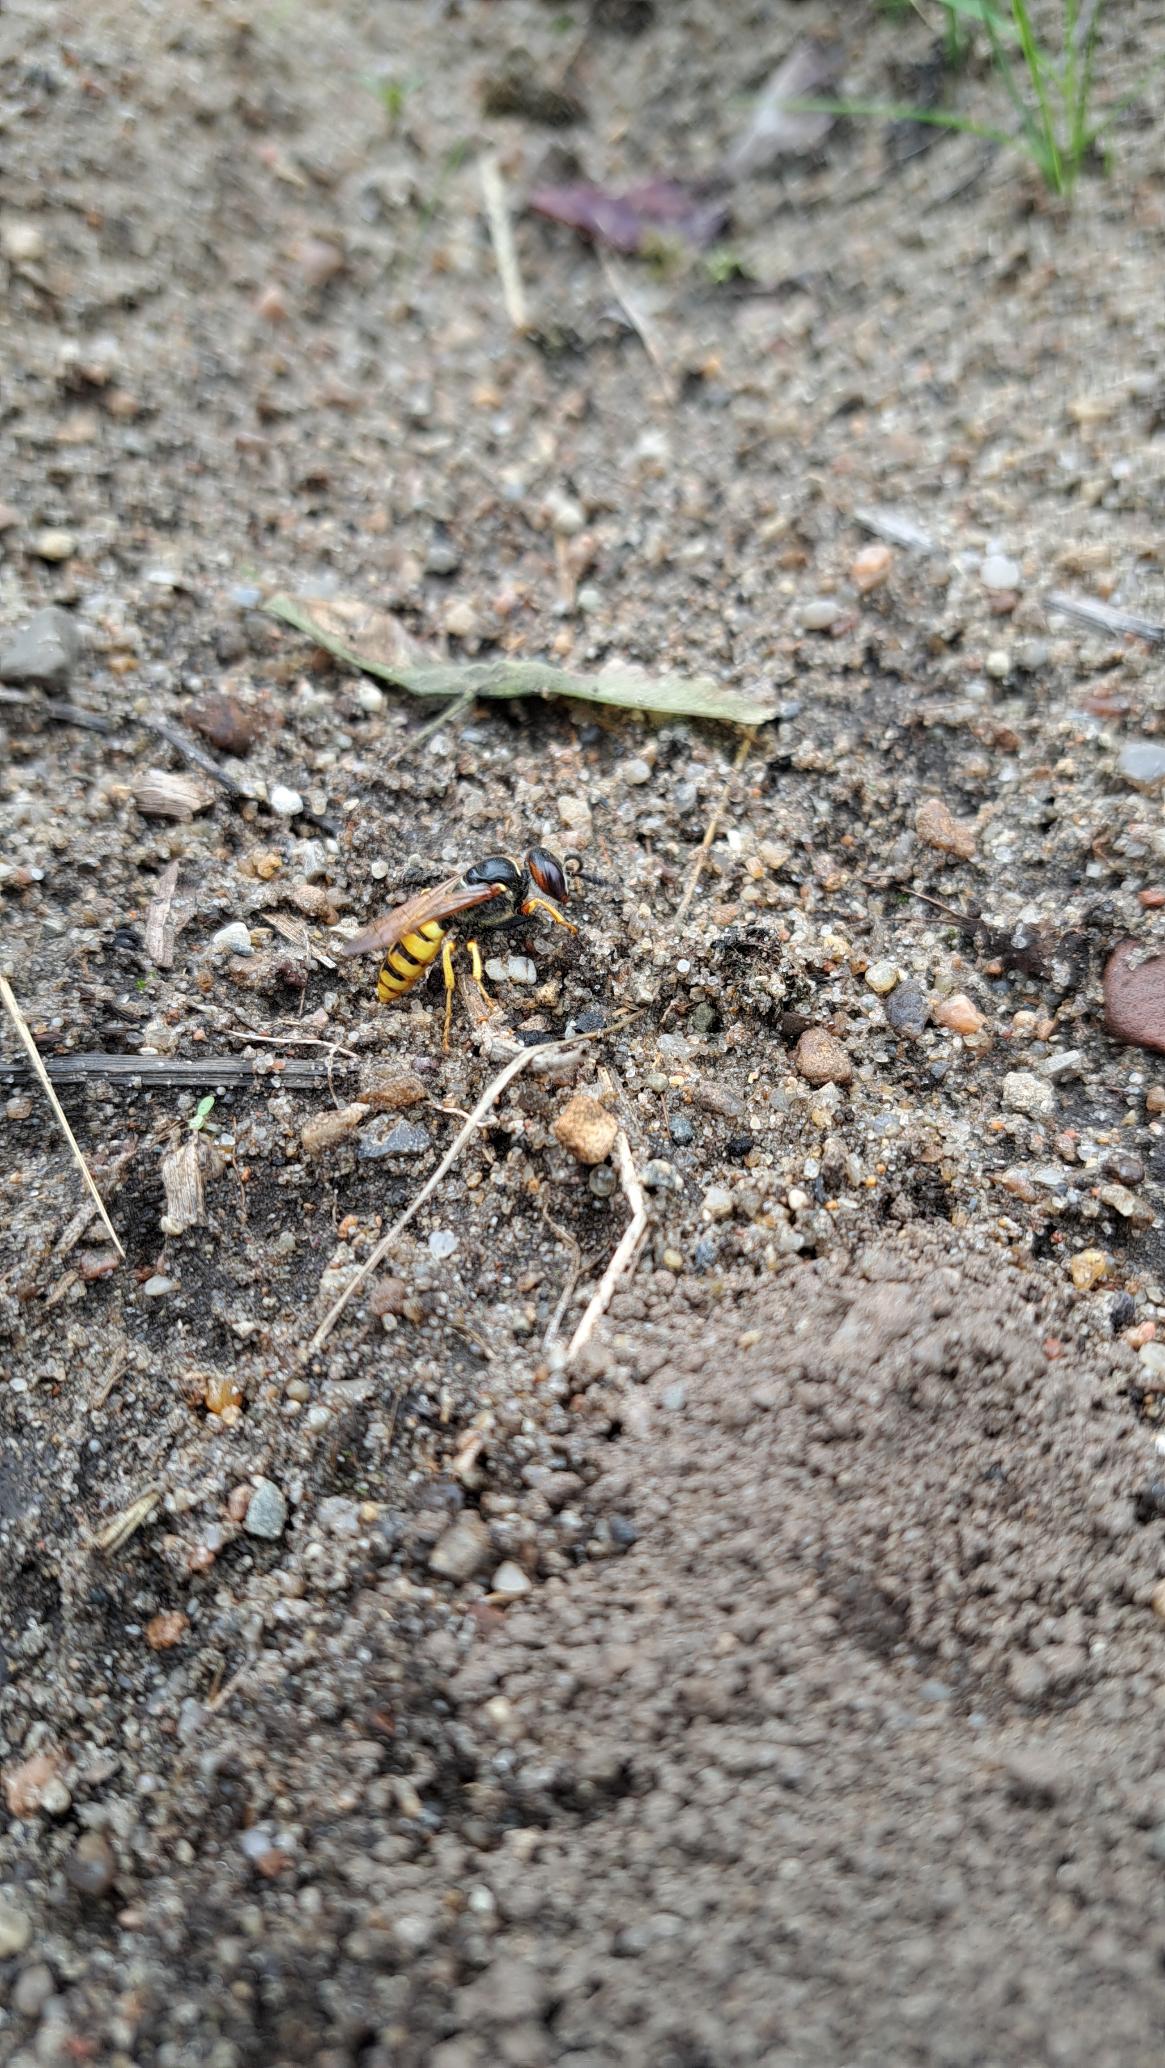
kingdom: Animalia
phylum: Arthropoda
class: Insecta
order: Hymenoptera
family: Crabronidae
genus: Philanthus
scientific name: Philanthus triangulum
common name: Biulv
